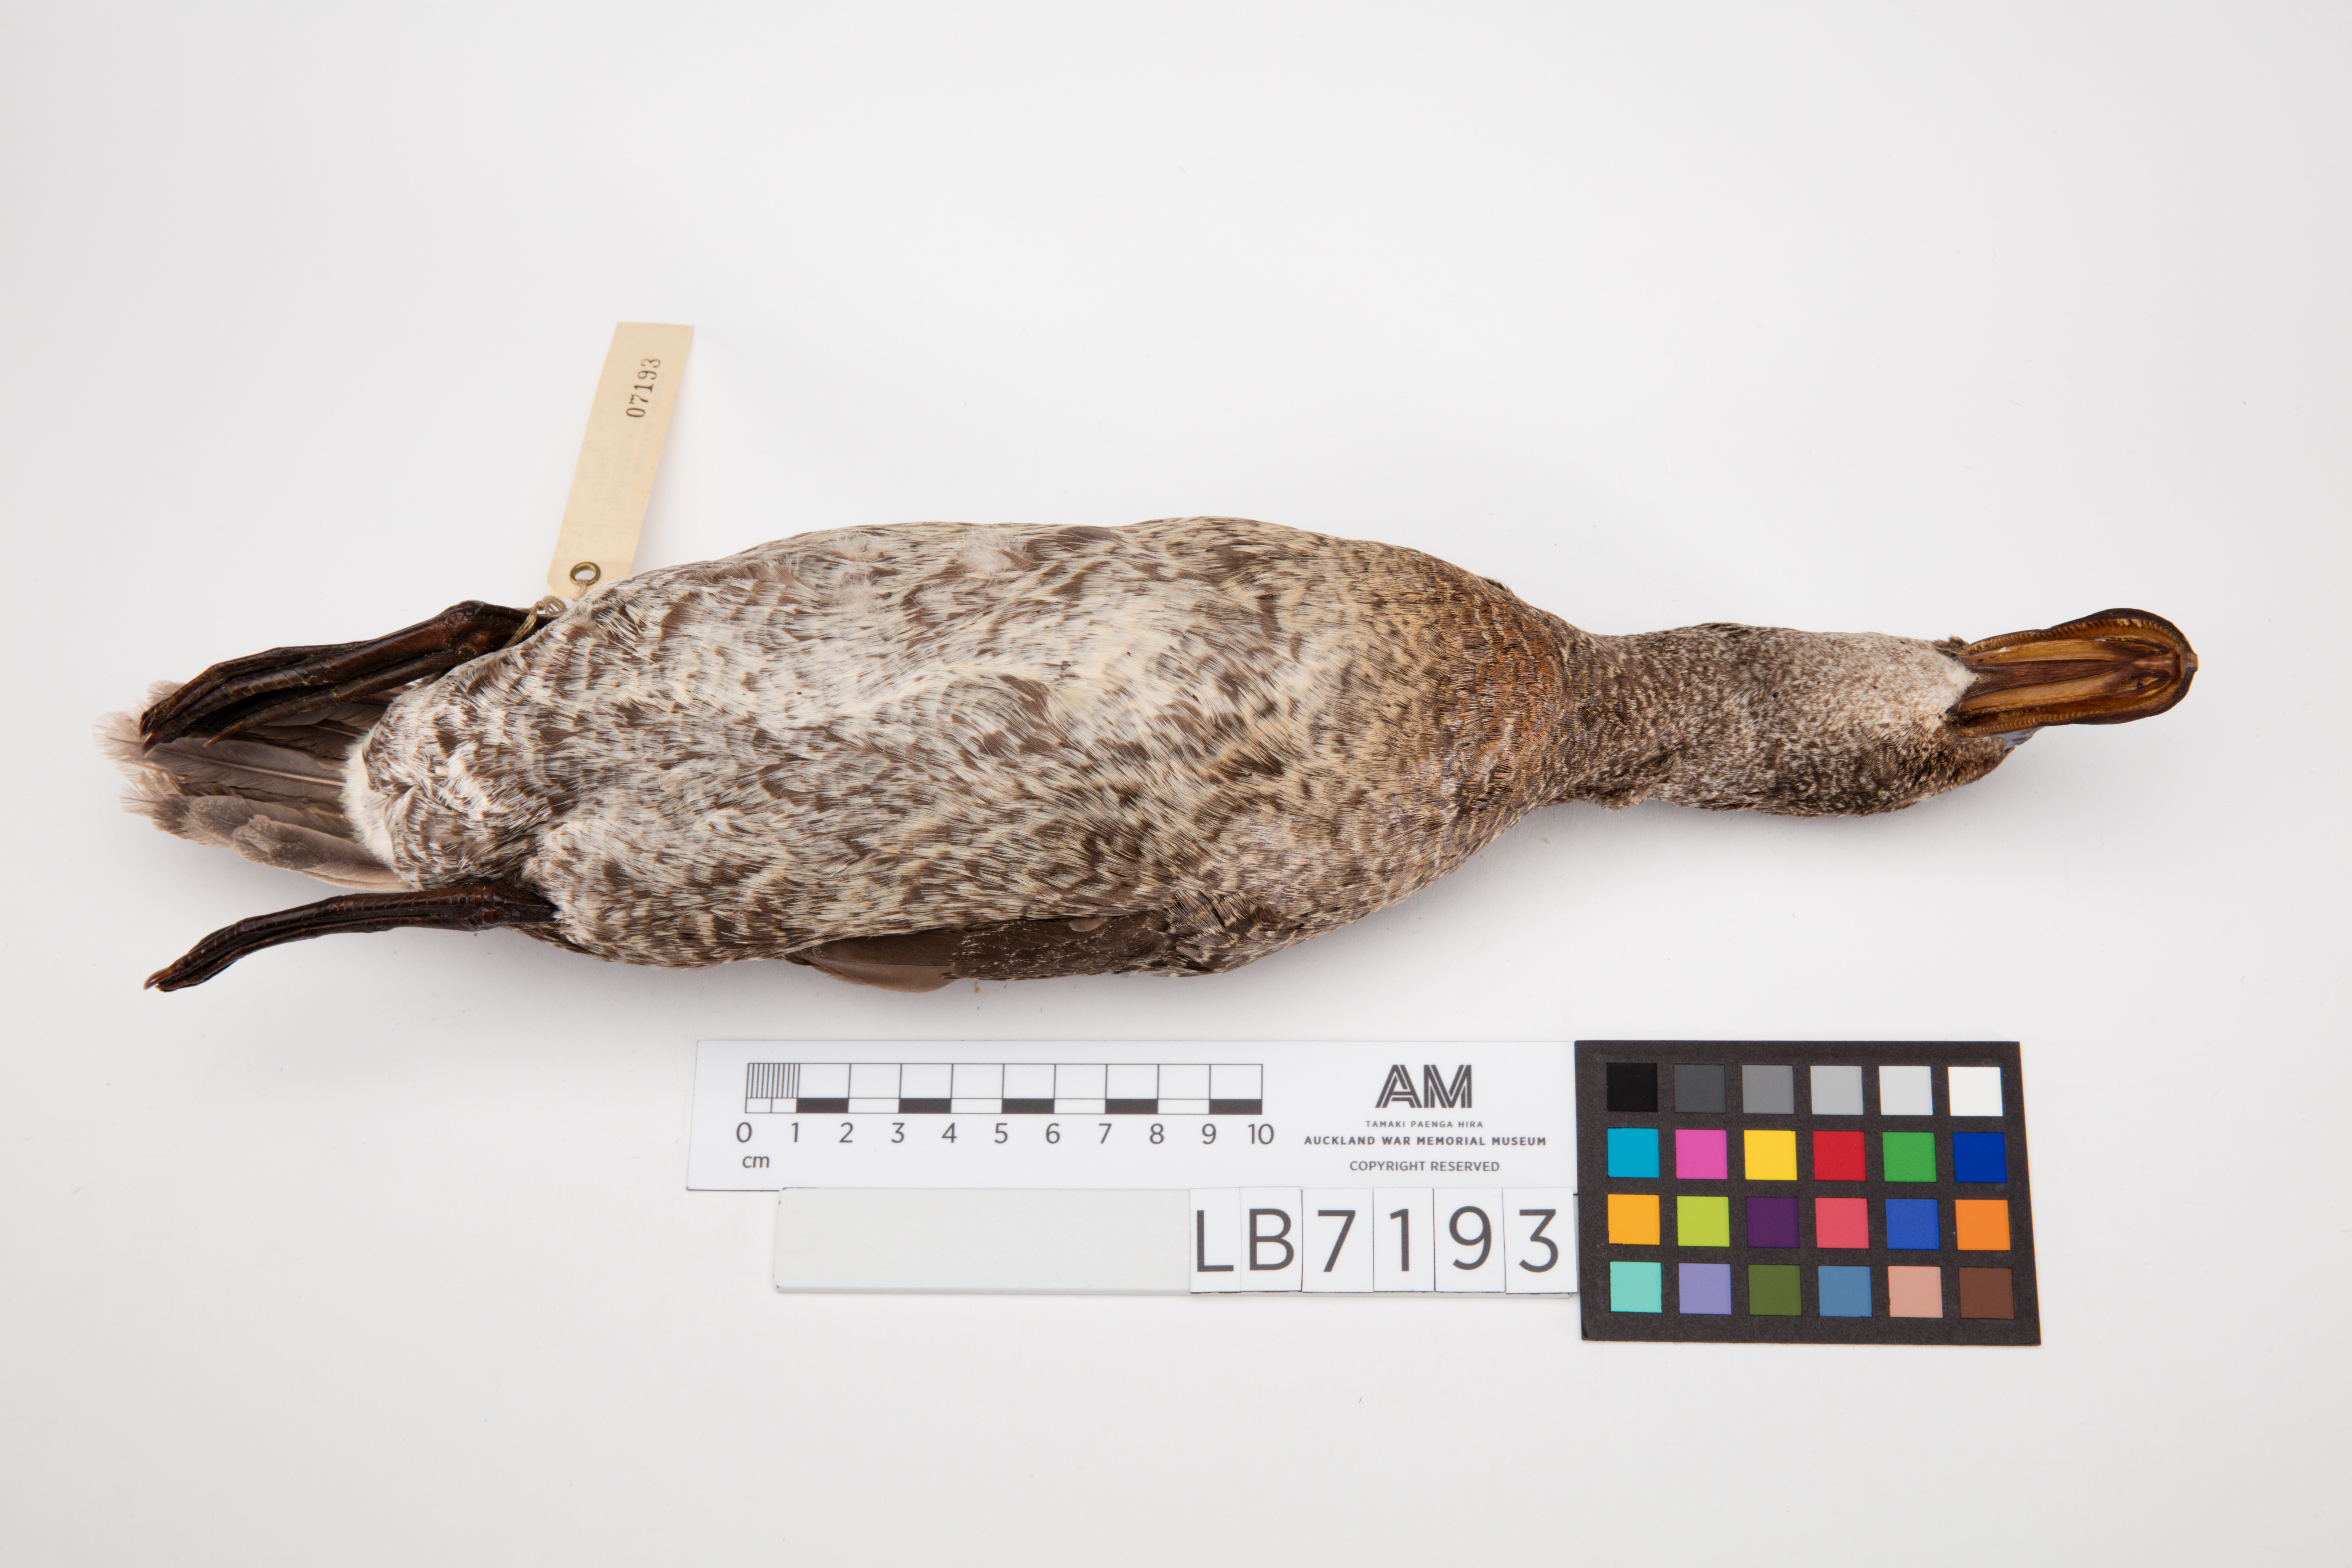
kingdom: Animalia
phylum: Chordata
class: Aves
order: Anseriformes
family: Anatidae
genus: Stictonetta
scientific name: Stictonetta naevosa
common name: Freckled duck
